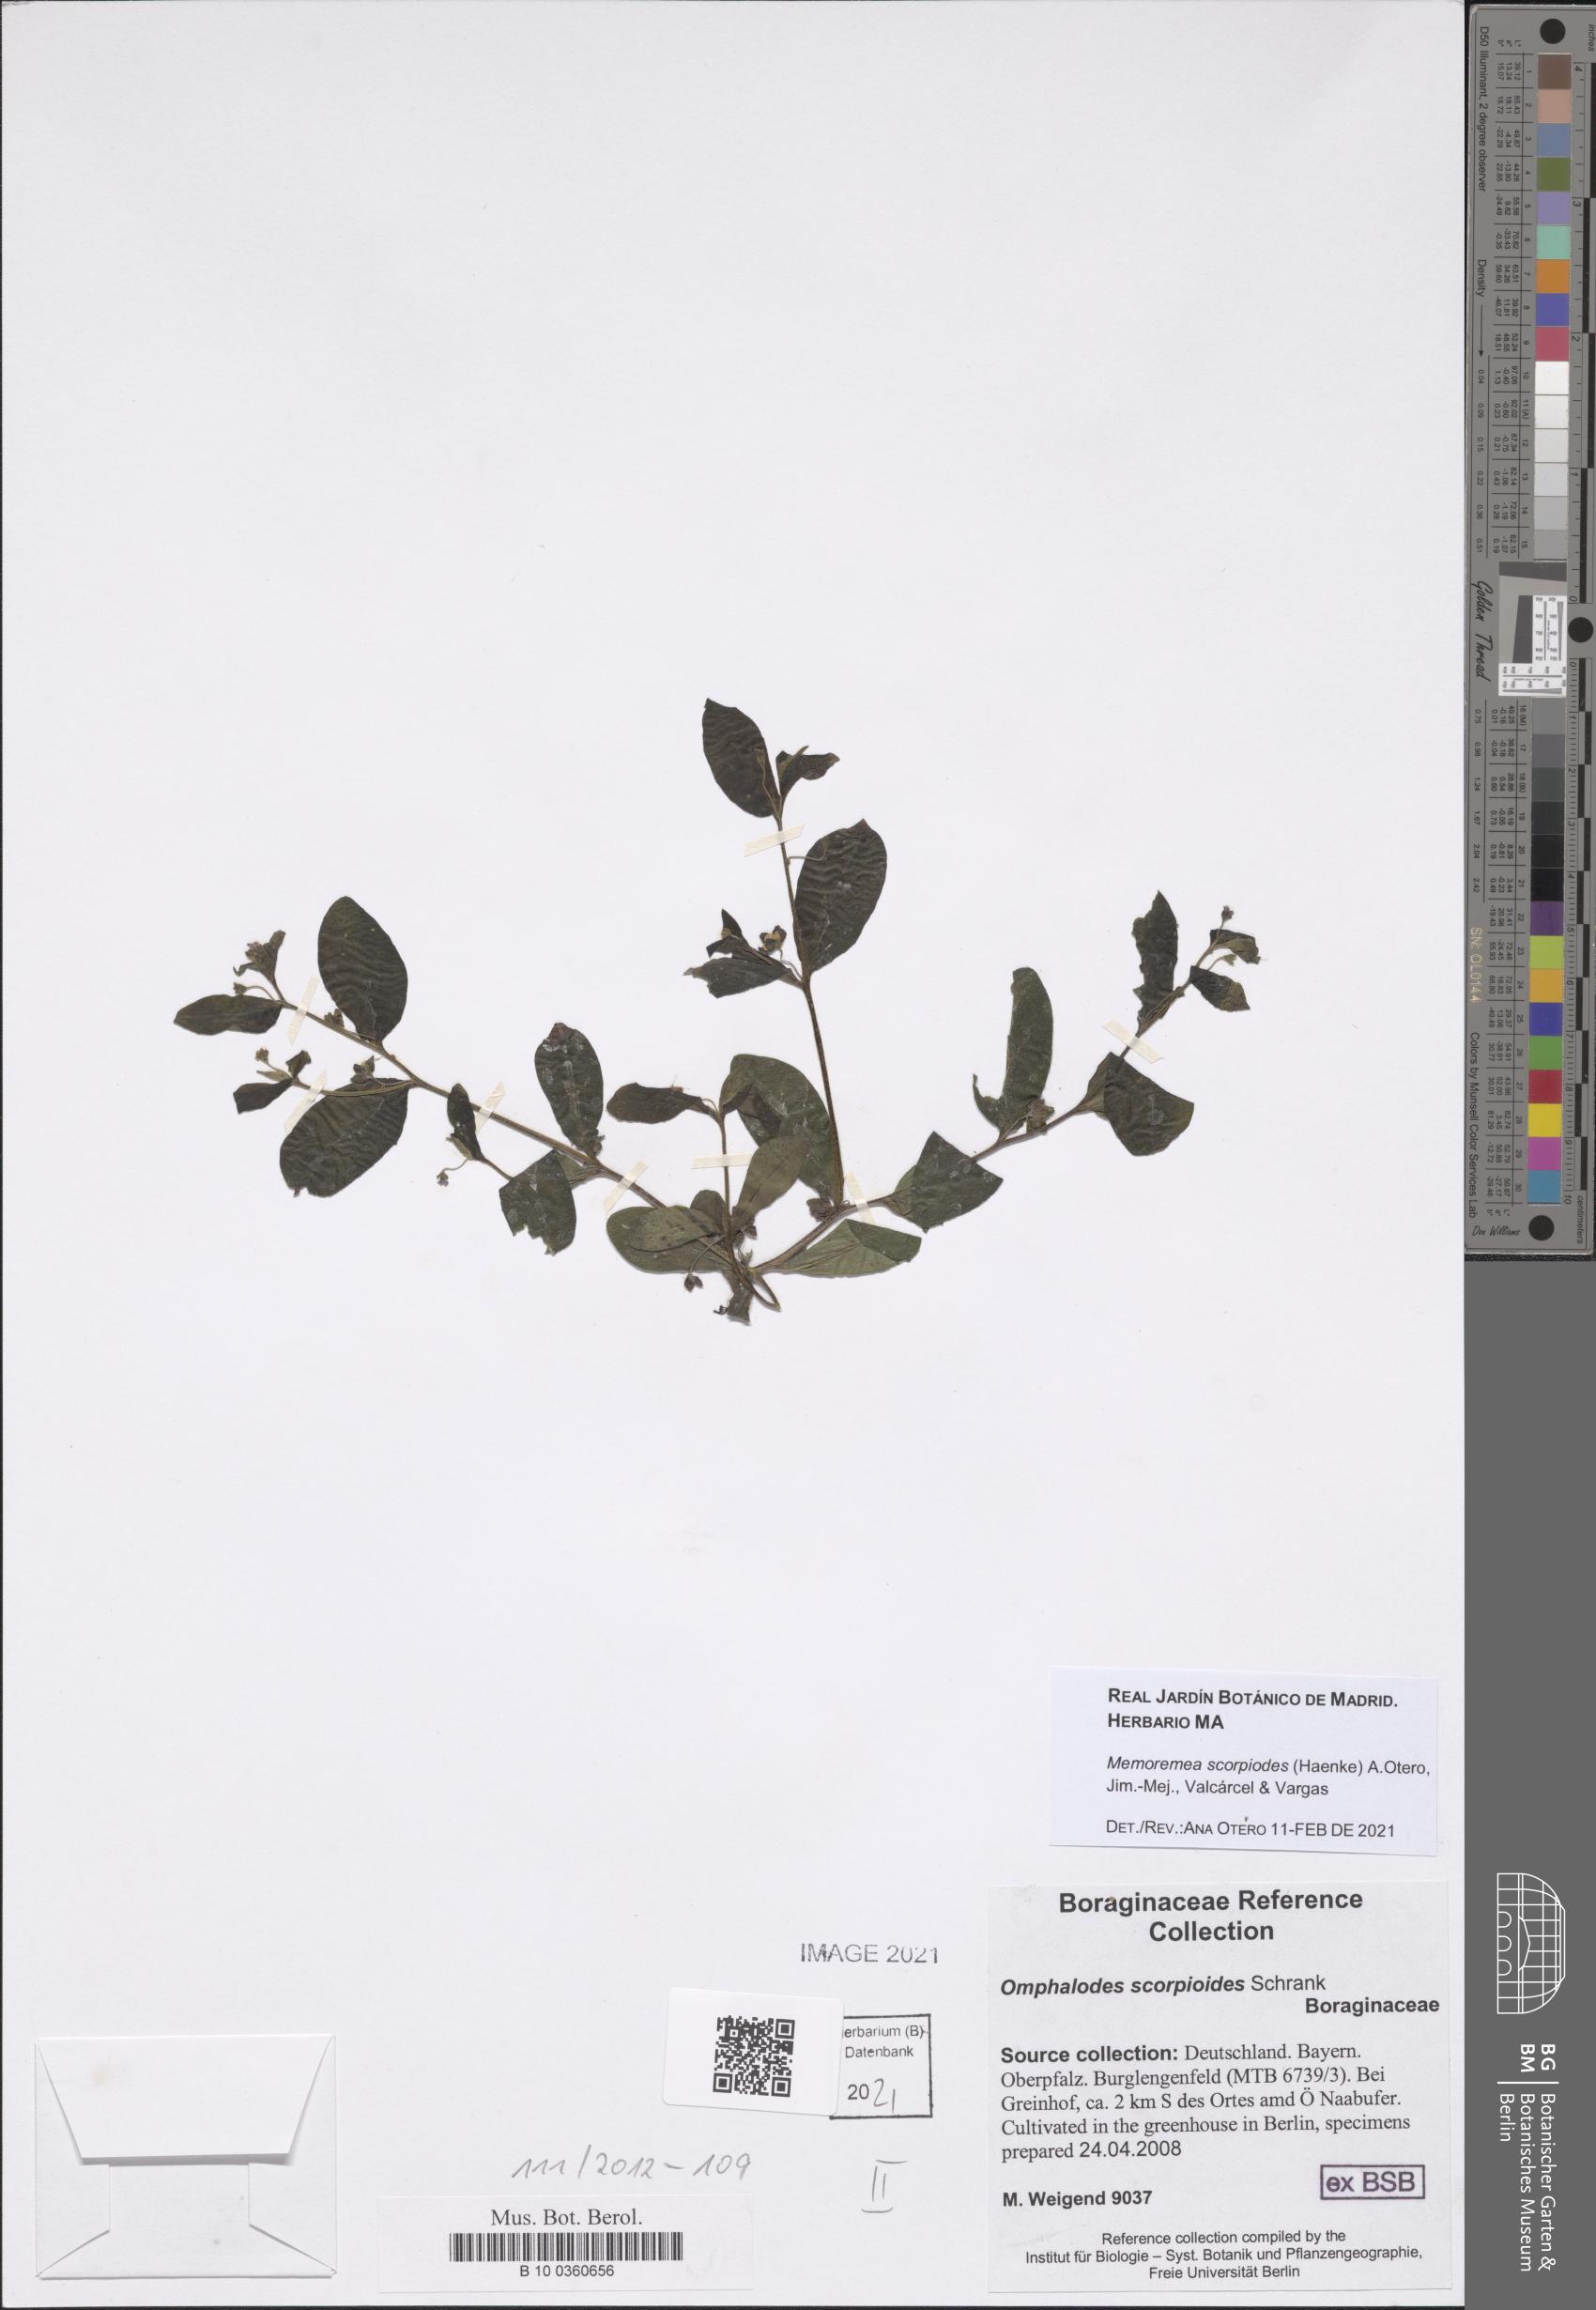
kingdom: Plantae
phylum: Tracheophyta
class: Magnoliopsida
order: Boraginales
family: Boraginaceae
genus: Memoremea
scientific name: Memoremea scorpioides
